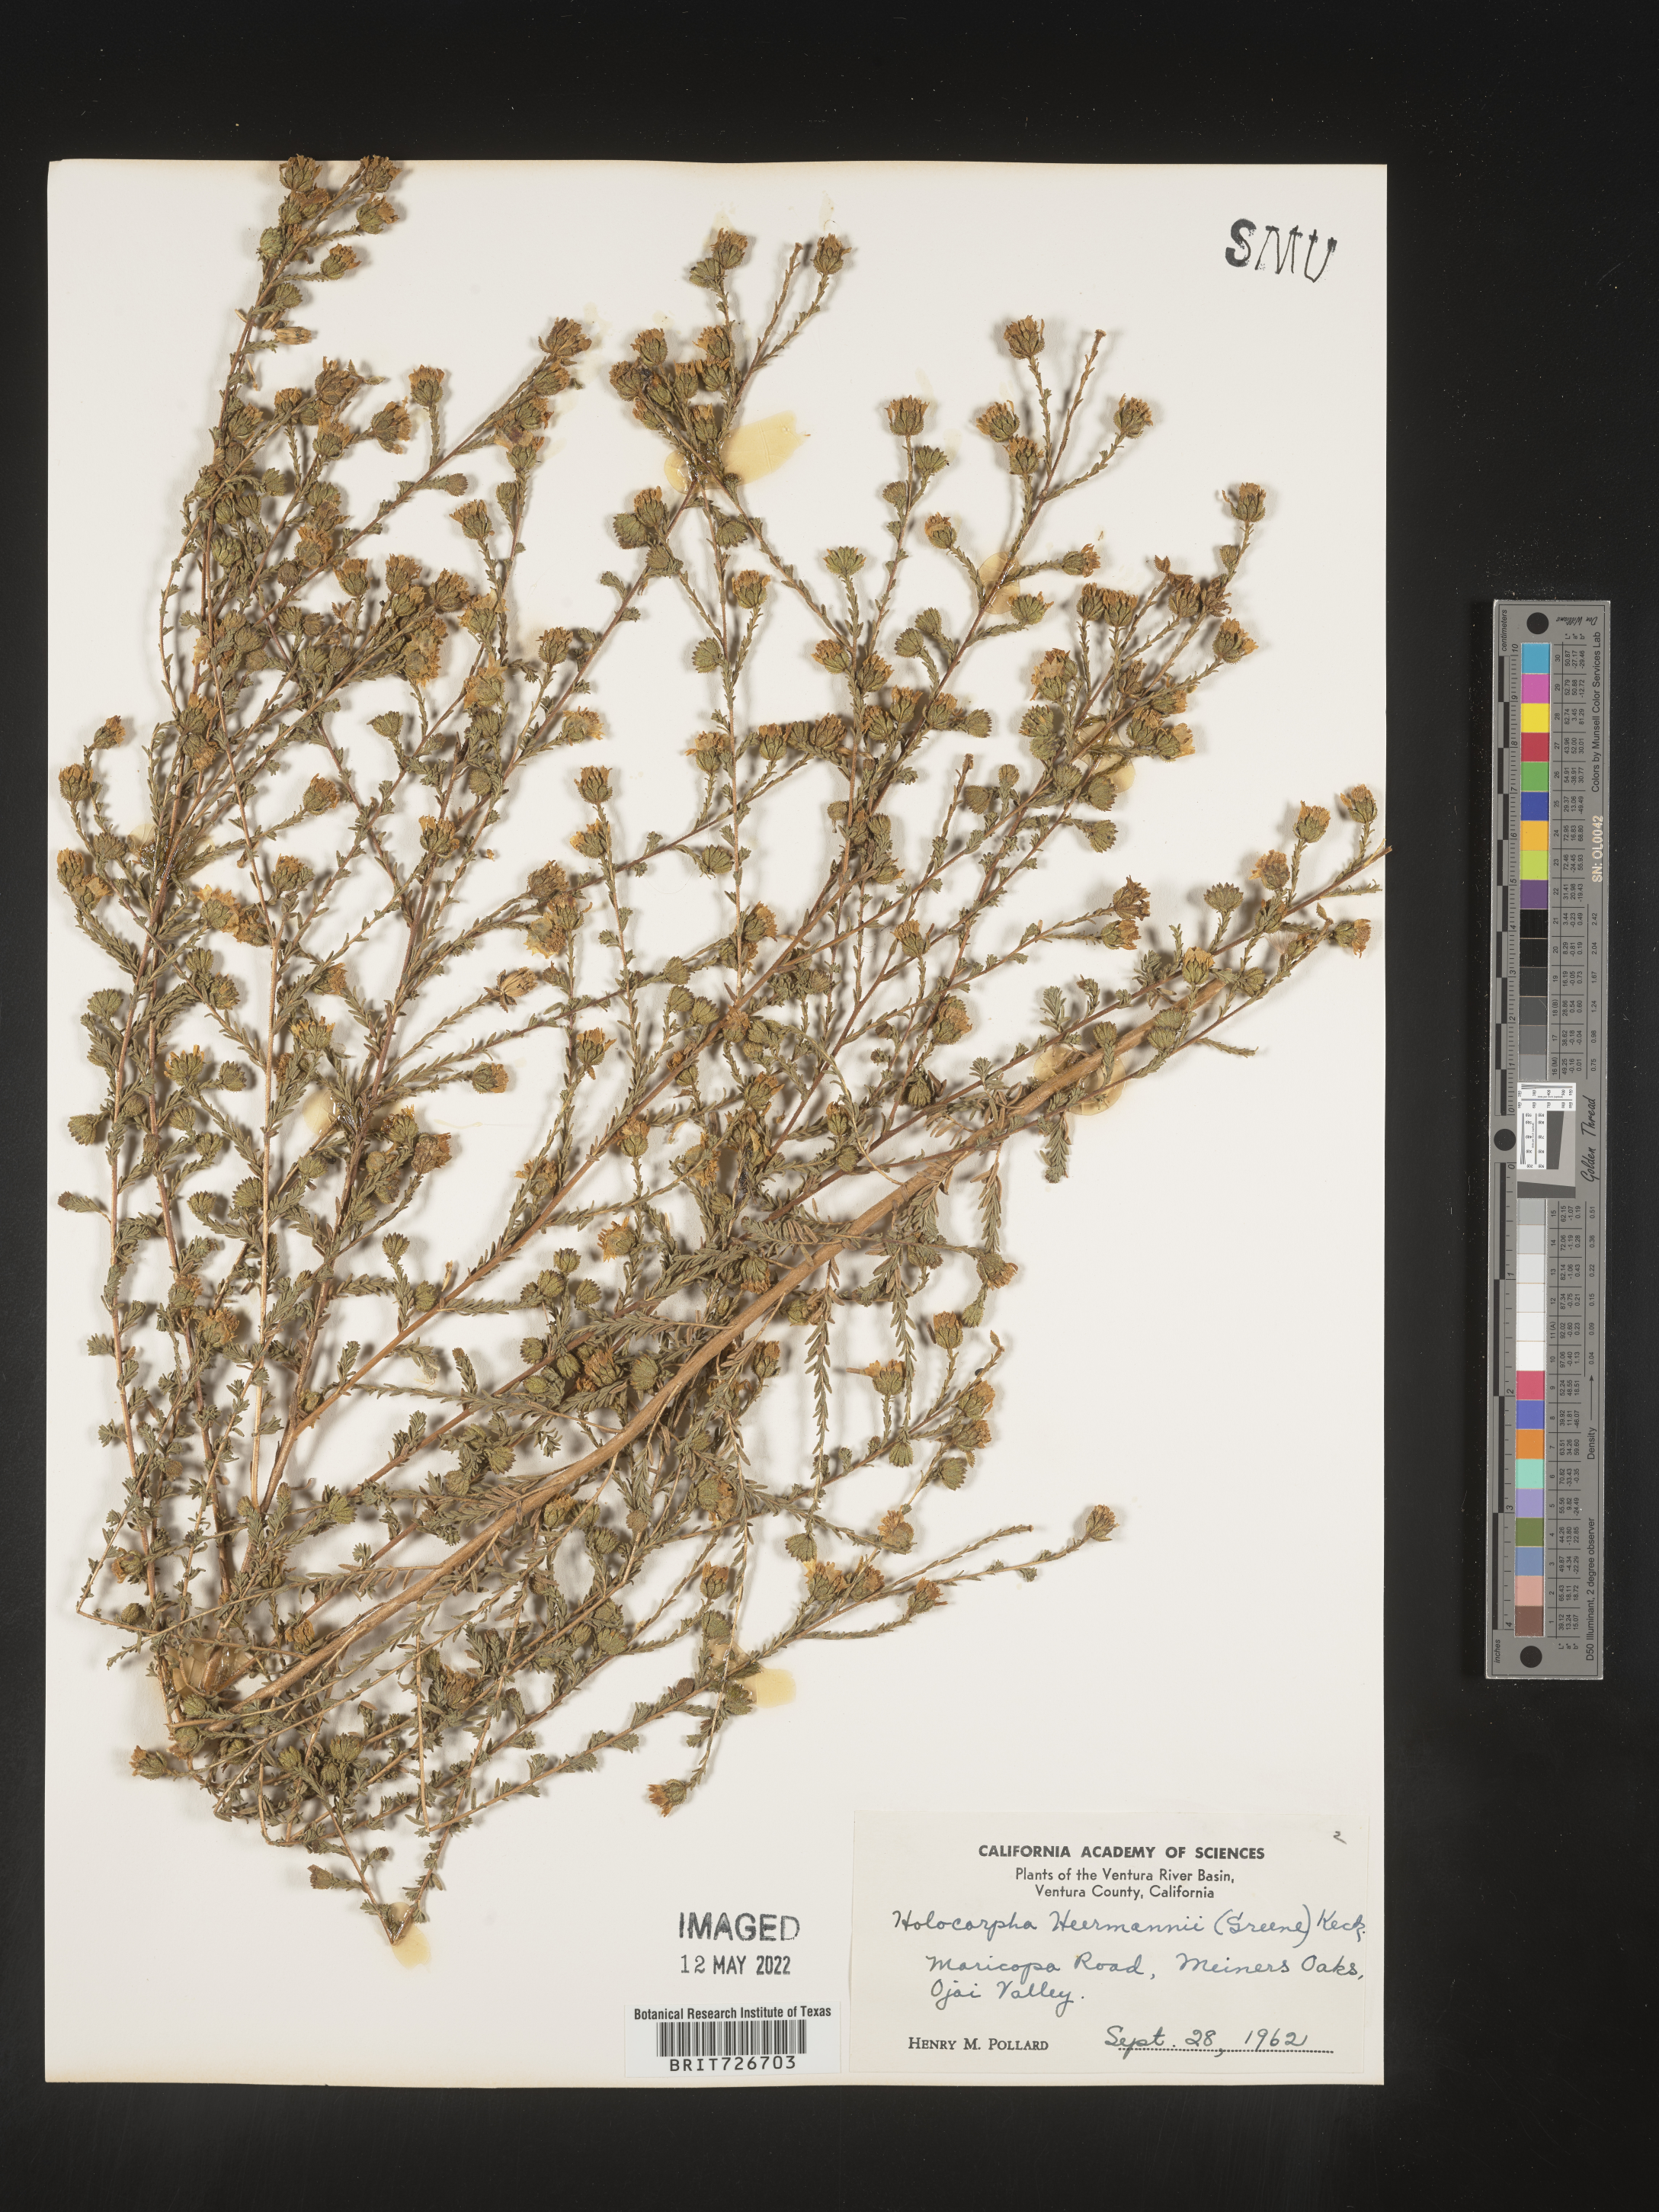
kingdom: Plantae
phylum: Tracheophyta
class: Magnoliopsida
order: Asterales
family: Asteraceae
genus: Holocarpha
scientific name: Holocarpha
